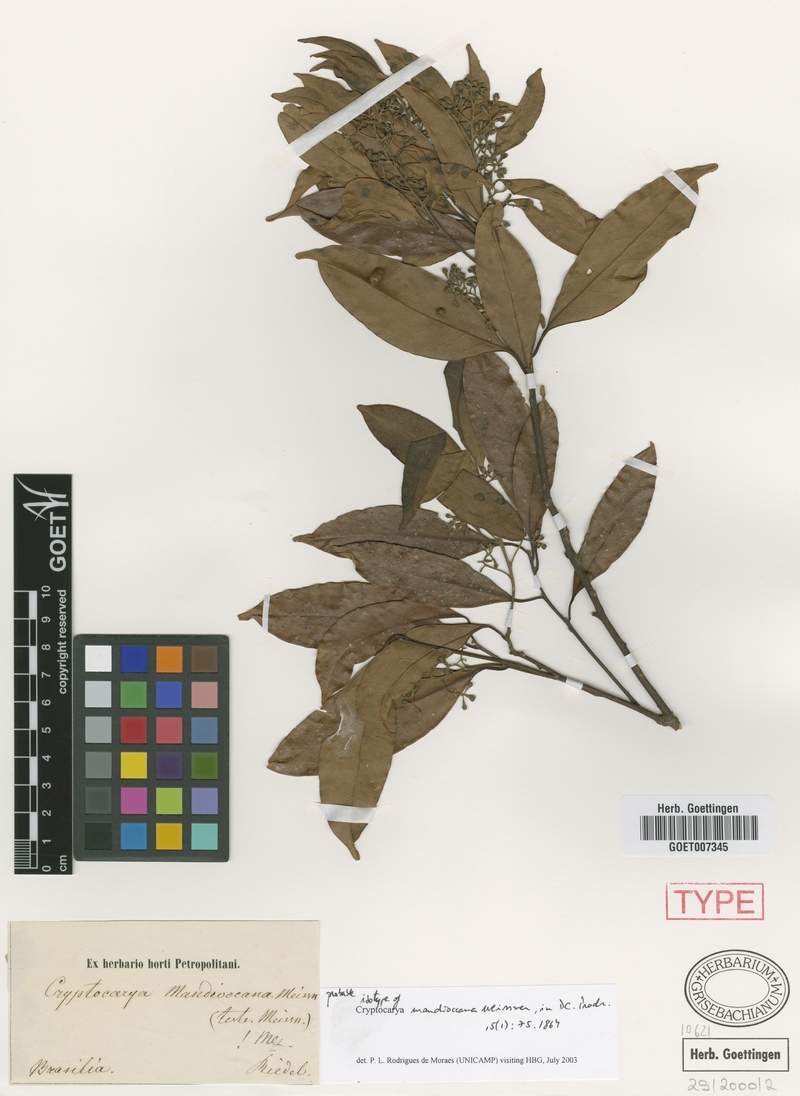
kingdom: Plantae
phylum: Tracheophyta
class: Magnoliopsida
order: Laurales
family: Lauraceae
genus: Cryptocarya
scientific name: Cryptocarya mandioccana
